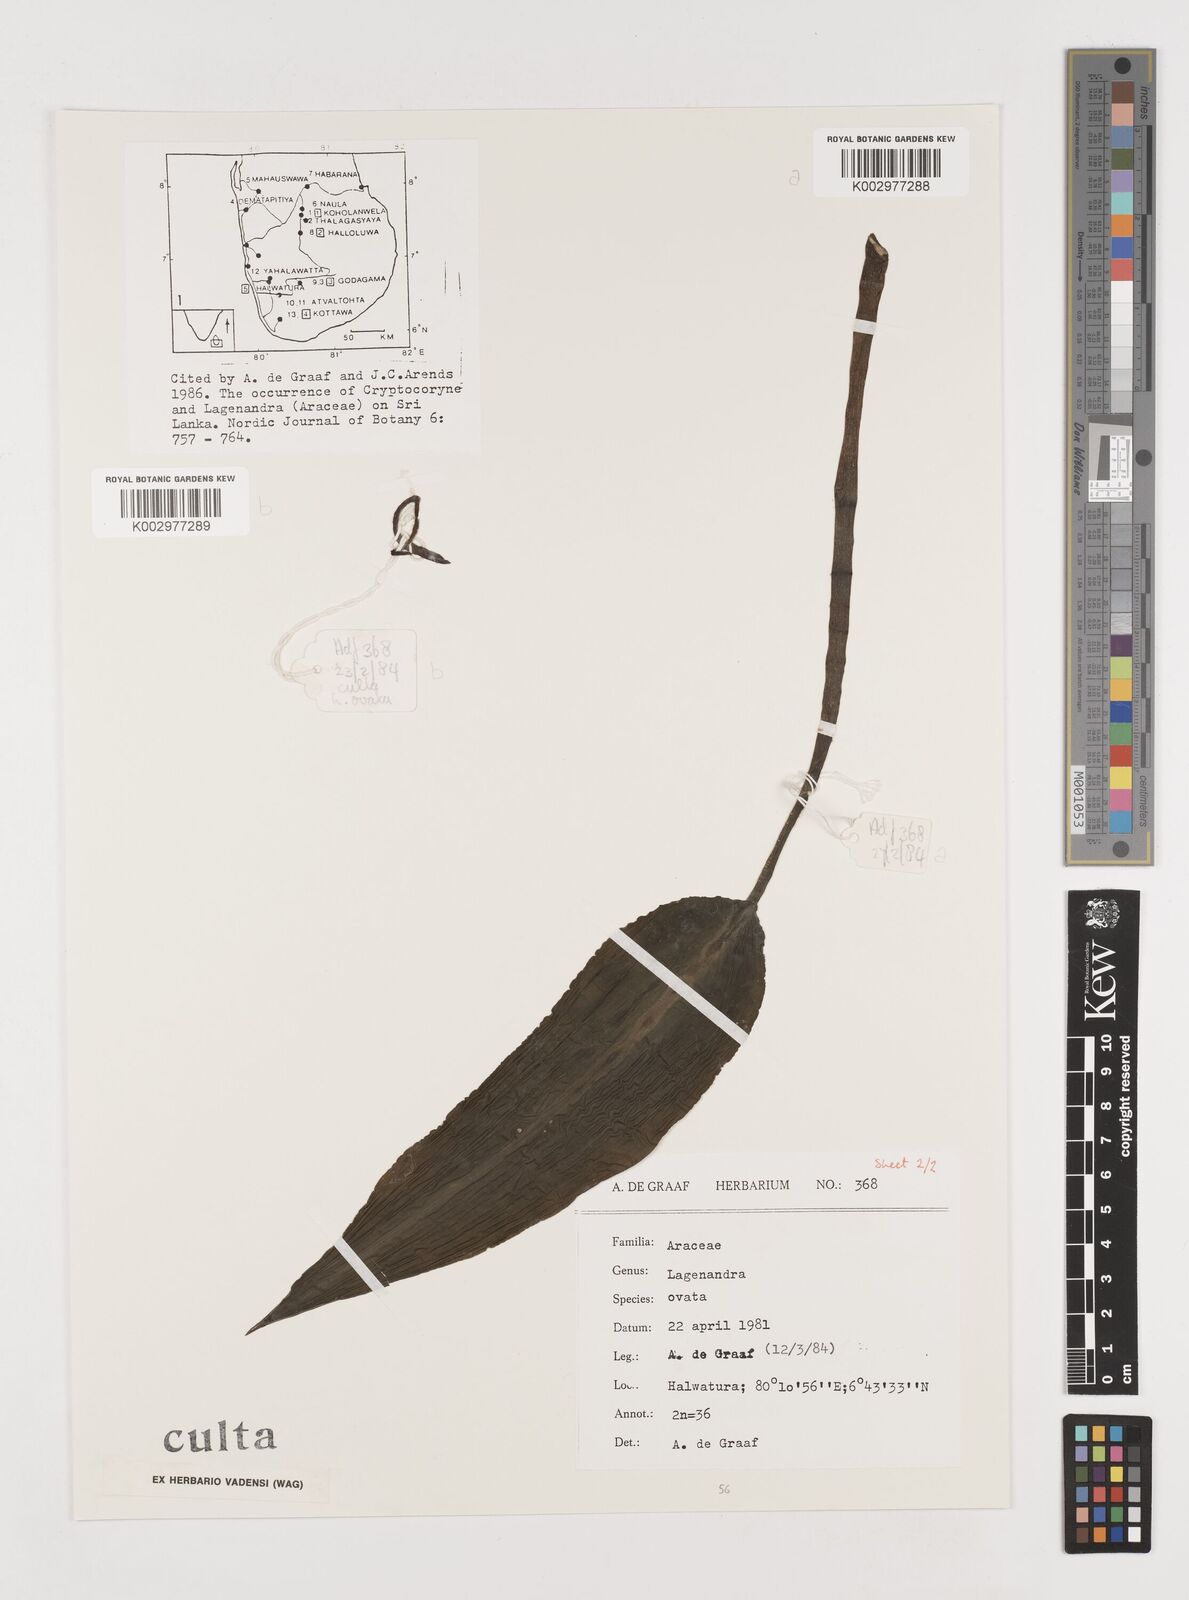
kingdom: Plantae
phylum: Tracheophyta
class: Liliopsida
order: Alismatales
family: Araceae
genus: Lagenandra
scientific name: Lagenandra ovata
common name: Malayan sword
